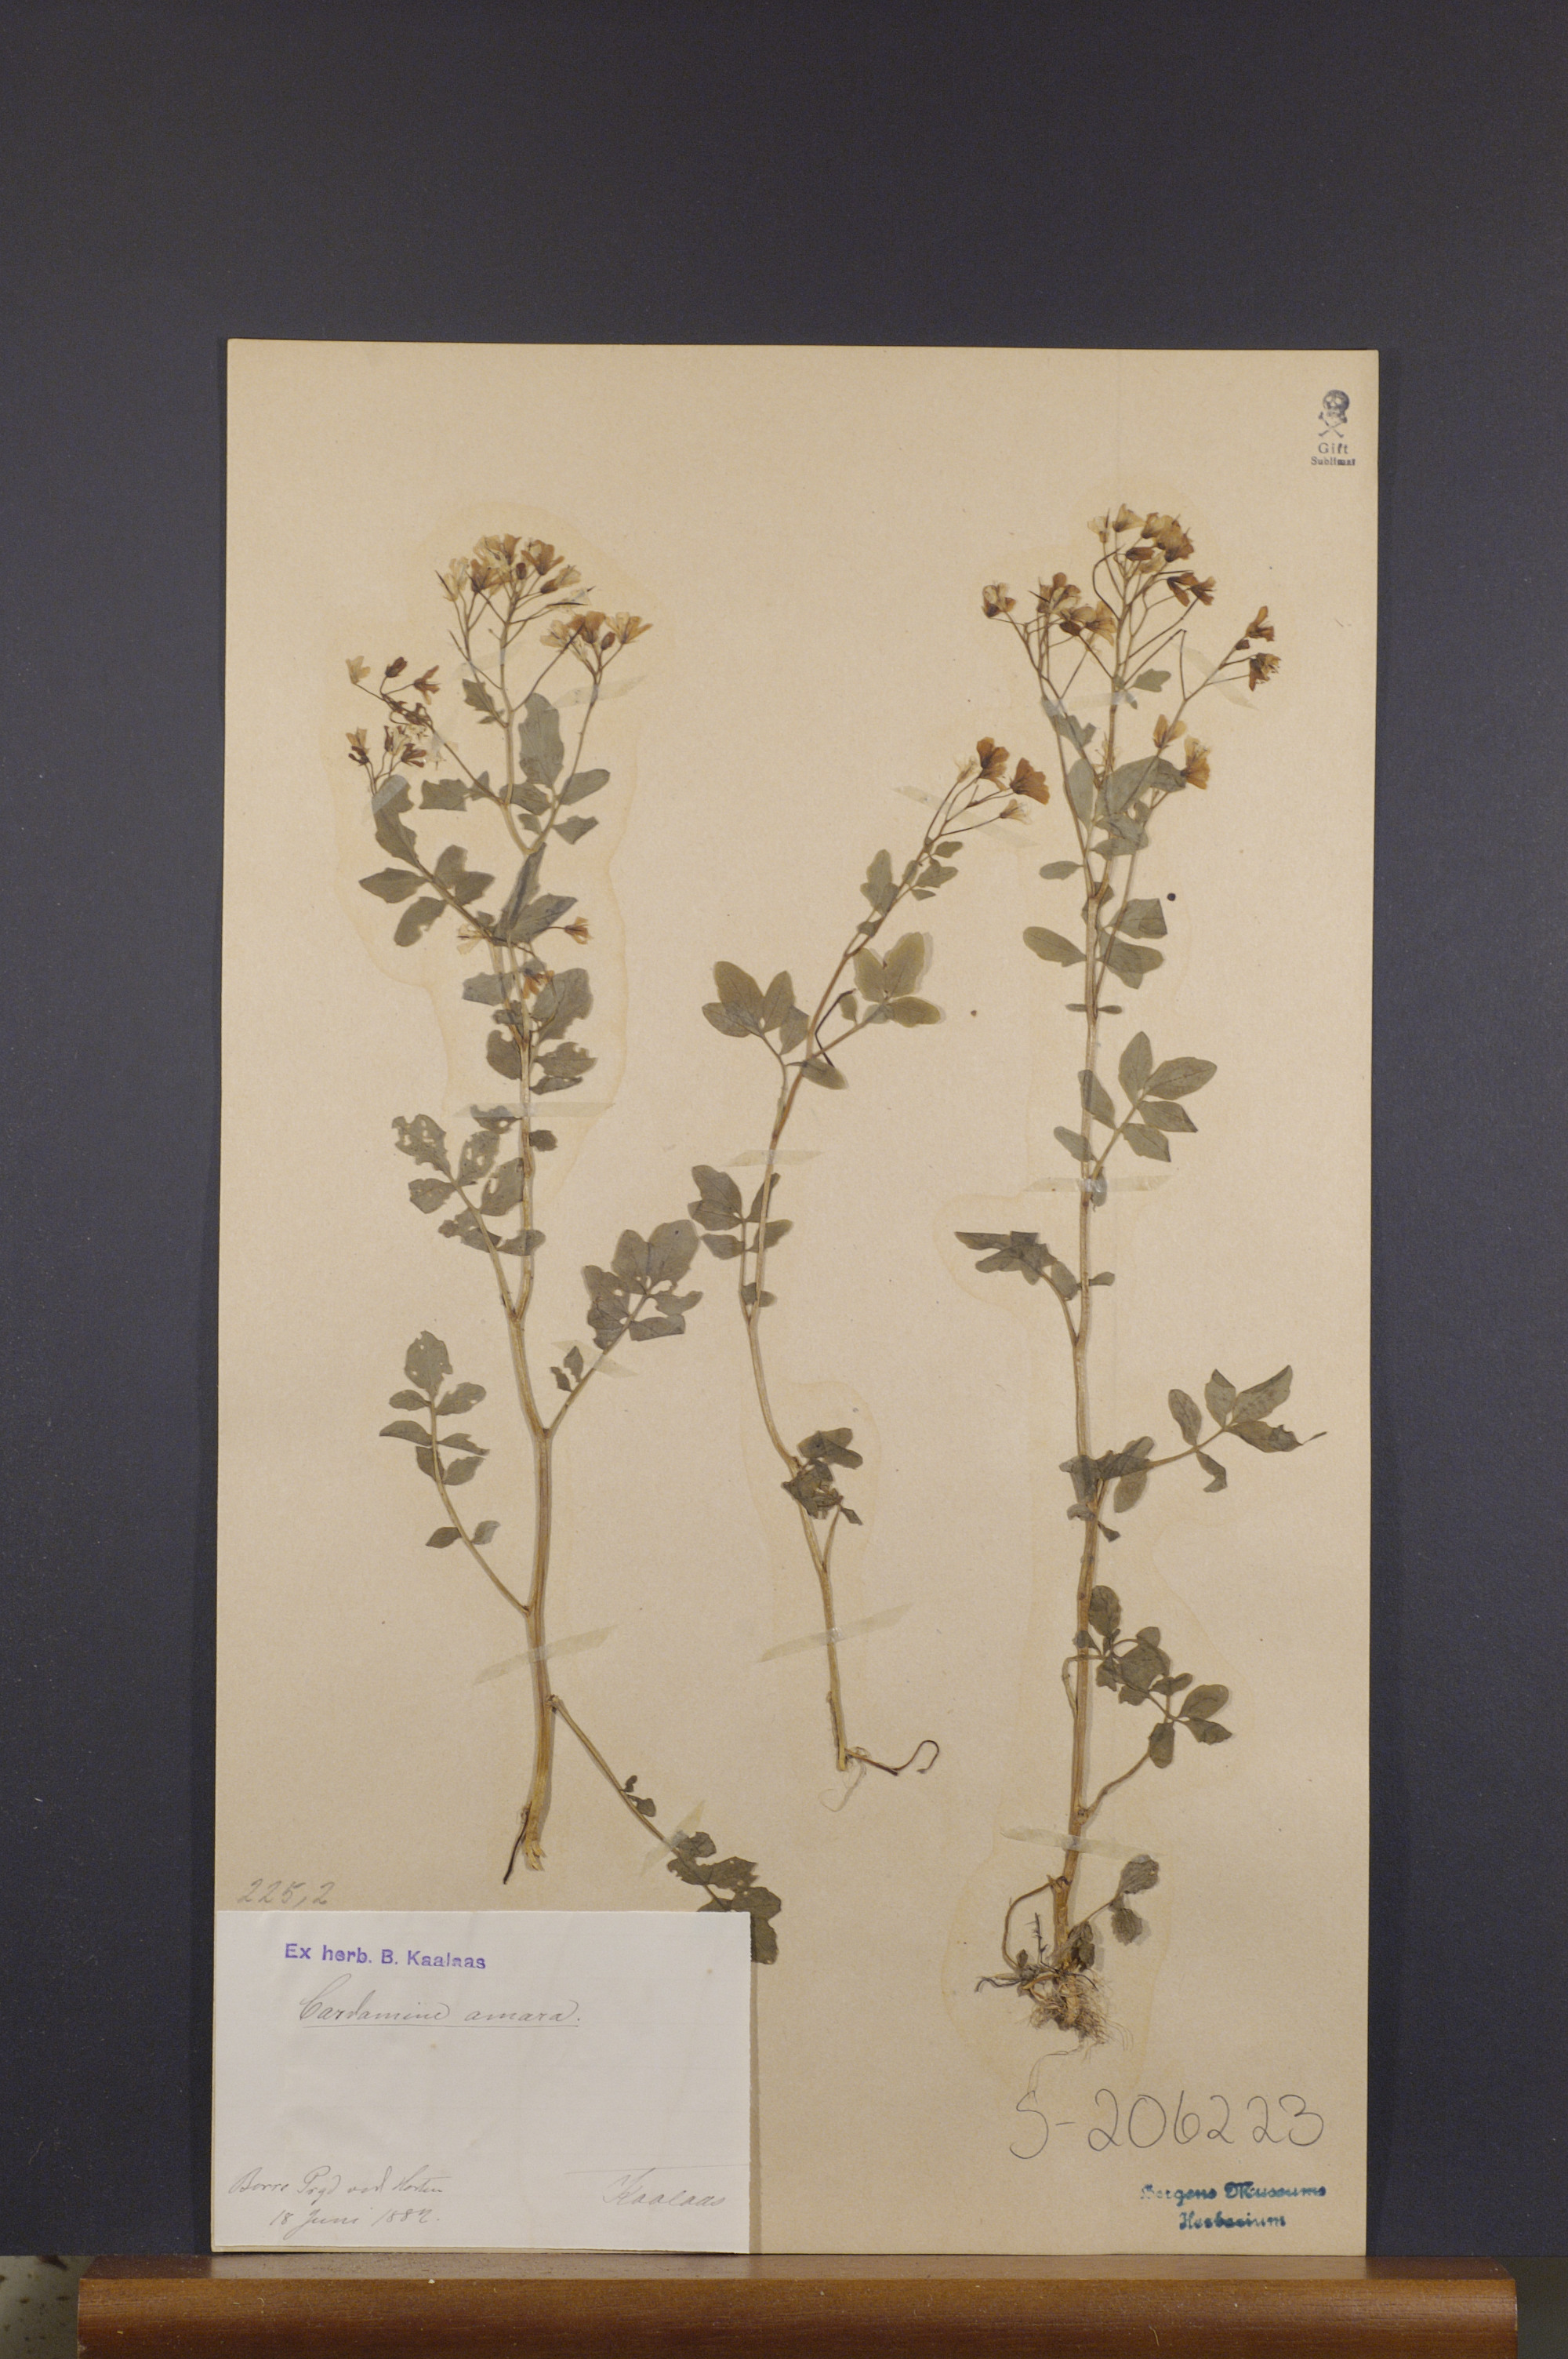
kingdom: Plantae
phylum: Tracheophyta
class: Magnoliopsida
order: Brassicales
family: Brassicaceae
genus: Cardamine
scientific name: Cardamine amara
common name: Large bitter-cress
